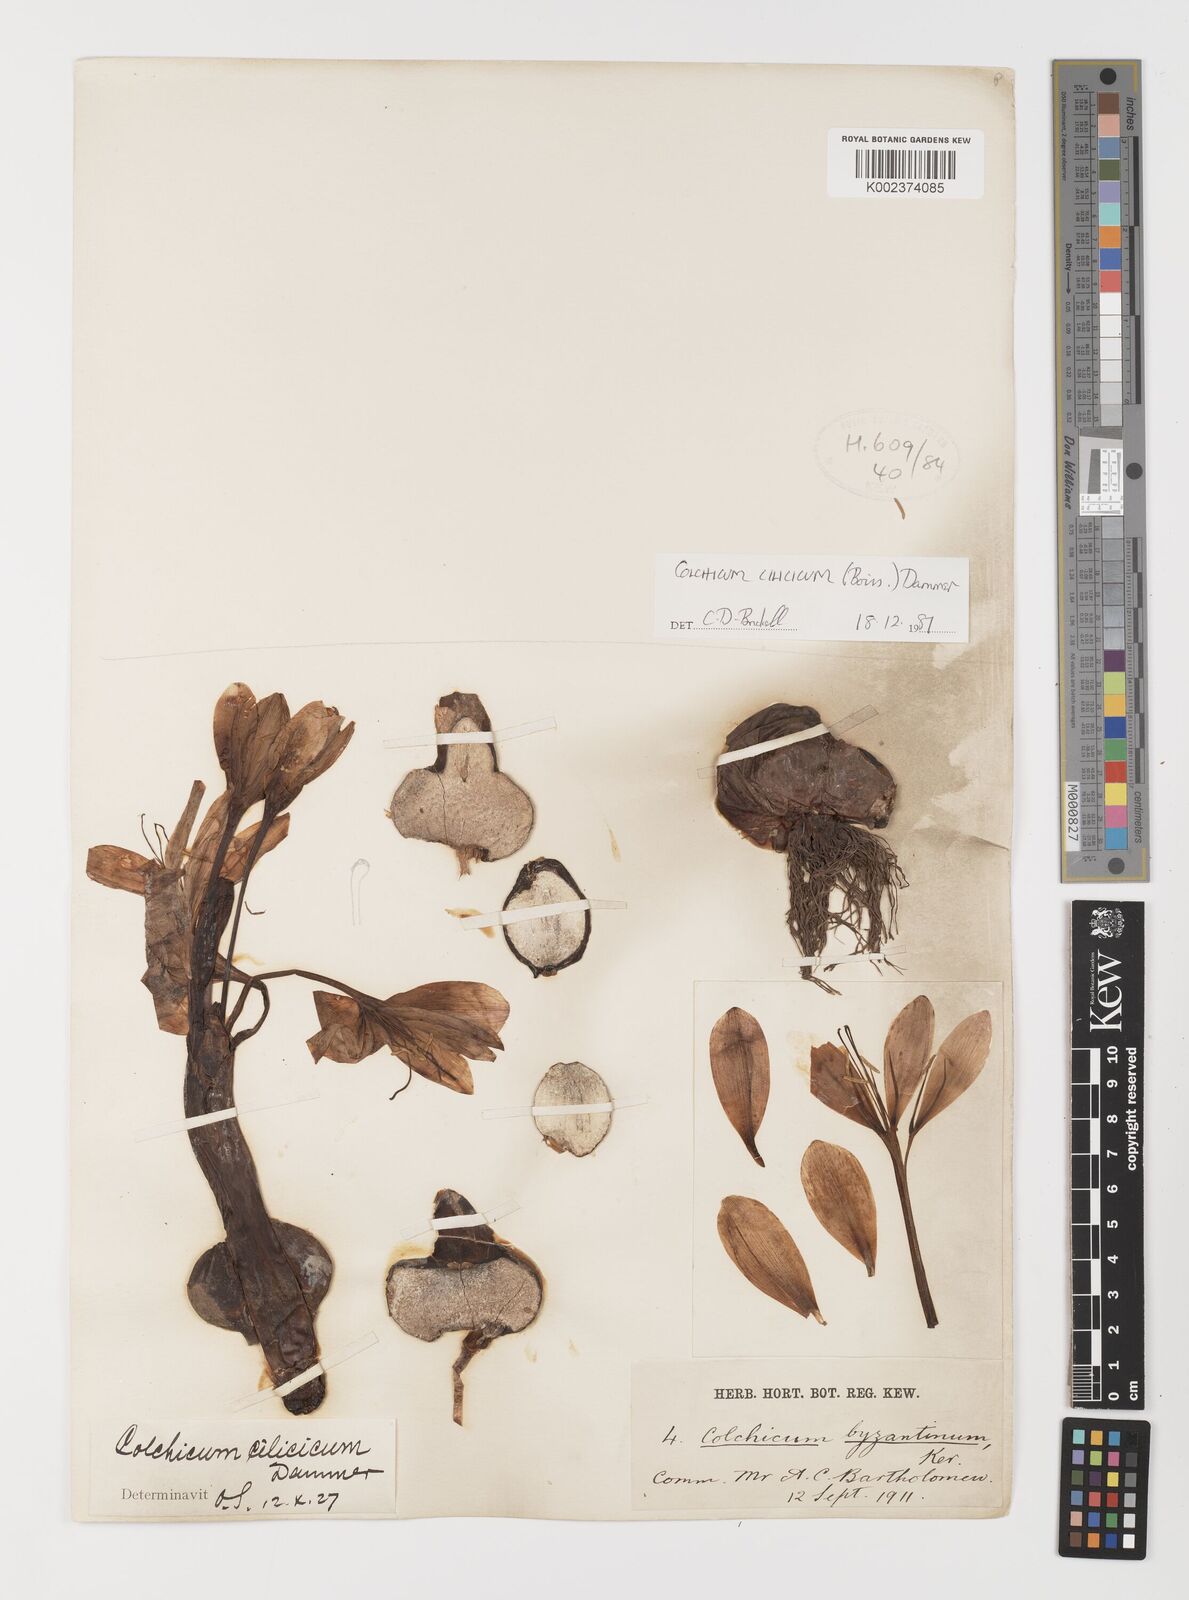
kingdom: Plantae
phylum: Tracheophyta
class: Liliopsida
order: Liliales
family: Colchicaceae
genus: Colchicum
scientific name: Colchicum cilicicum
